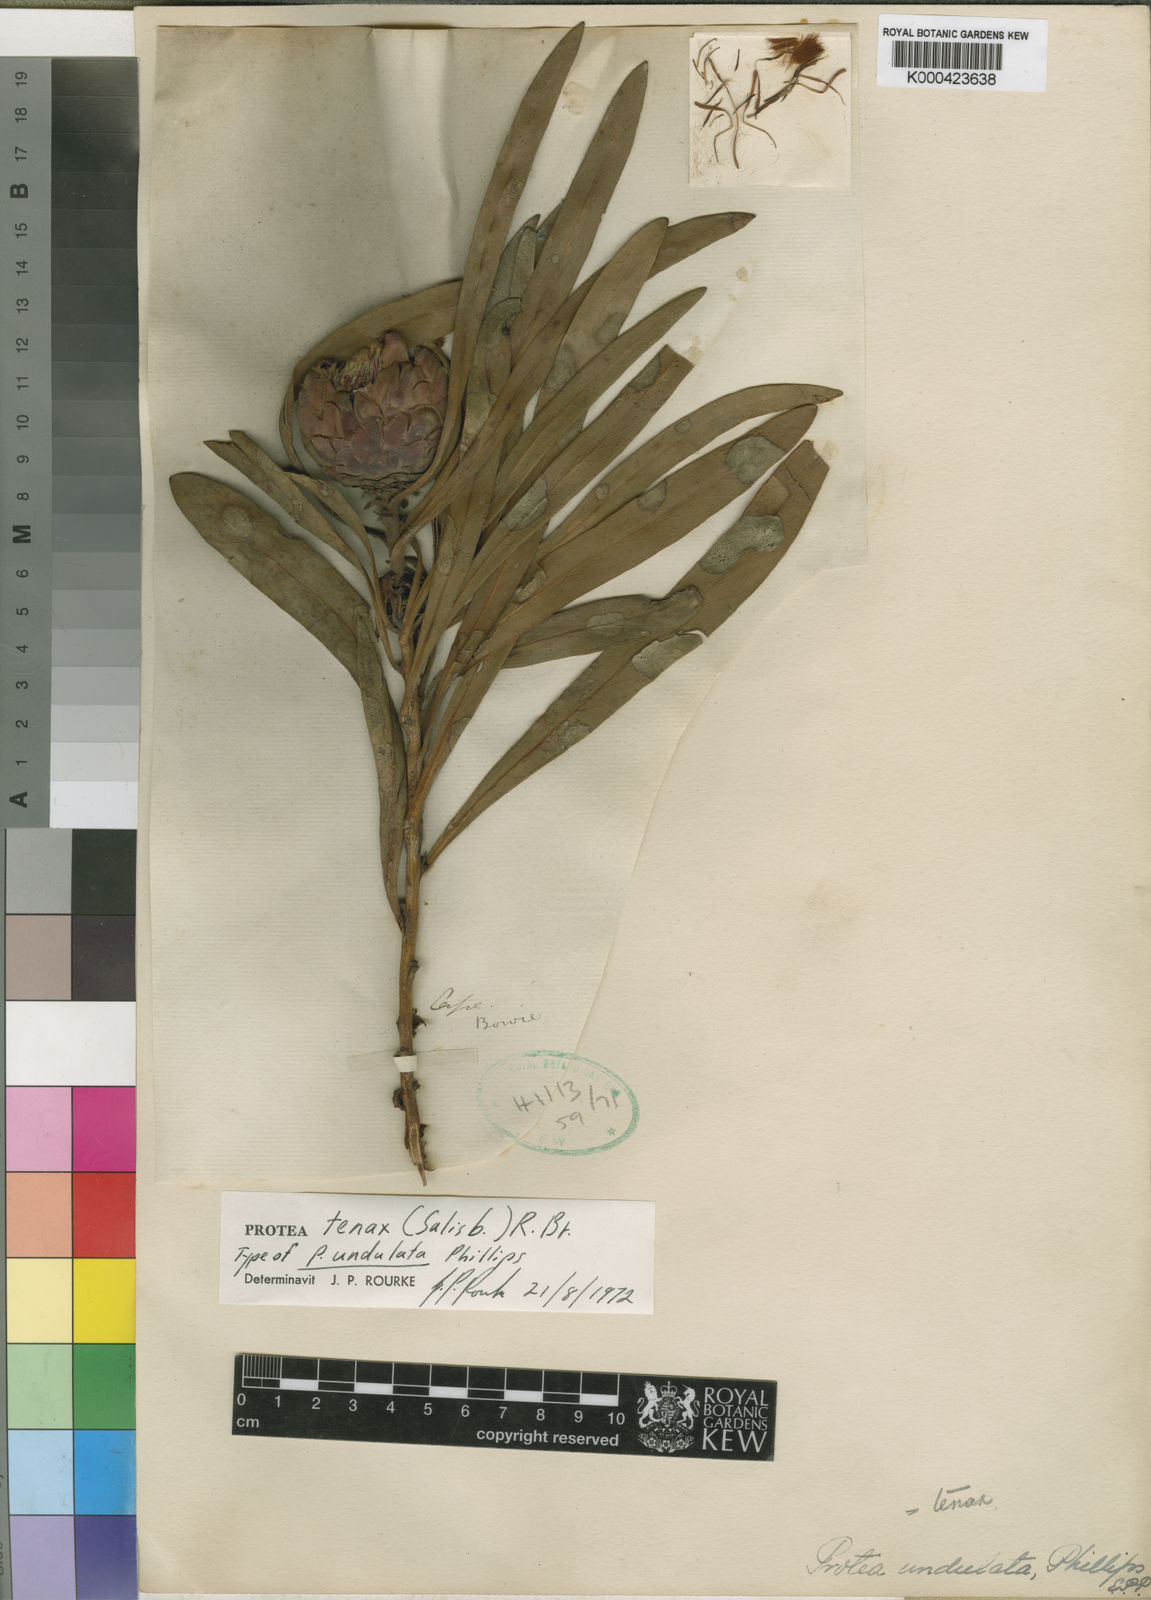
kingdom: Plantae
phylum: Tracheophyta
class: Magnoliopsida
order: Proteales
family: Proteaceae
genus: Protea
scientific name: Protea tenax
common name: Tenacious sugarbush
